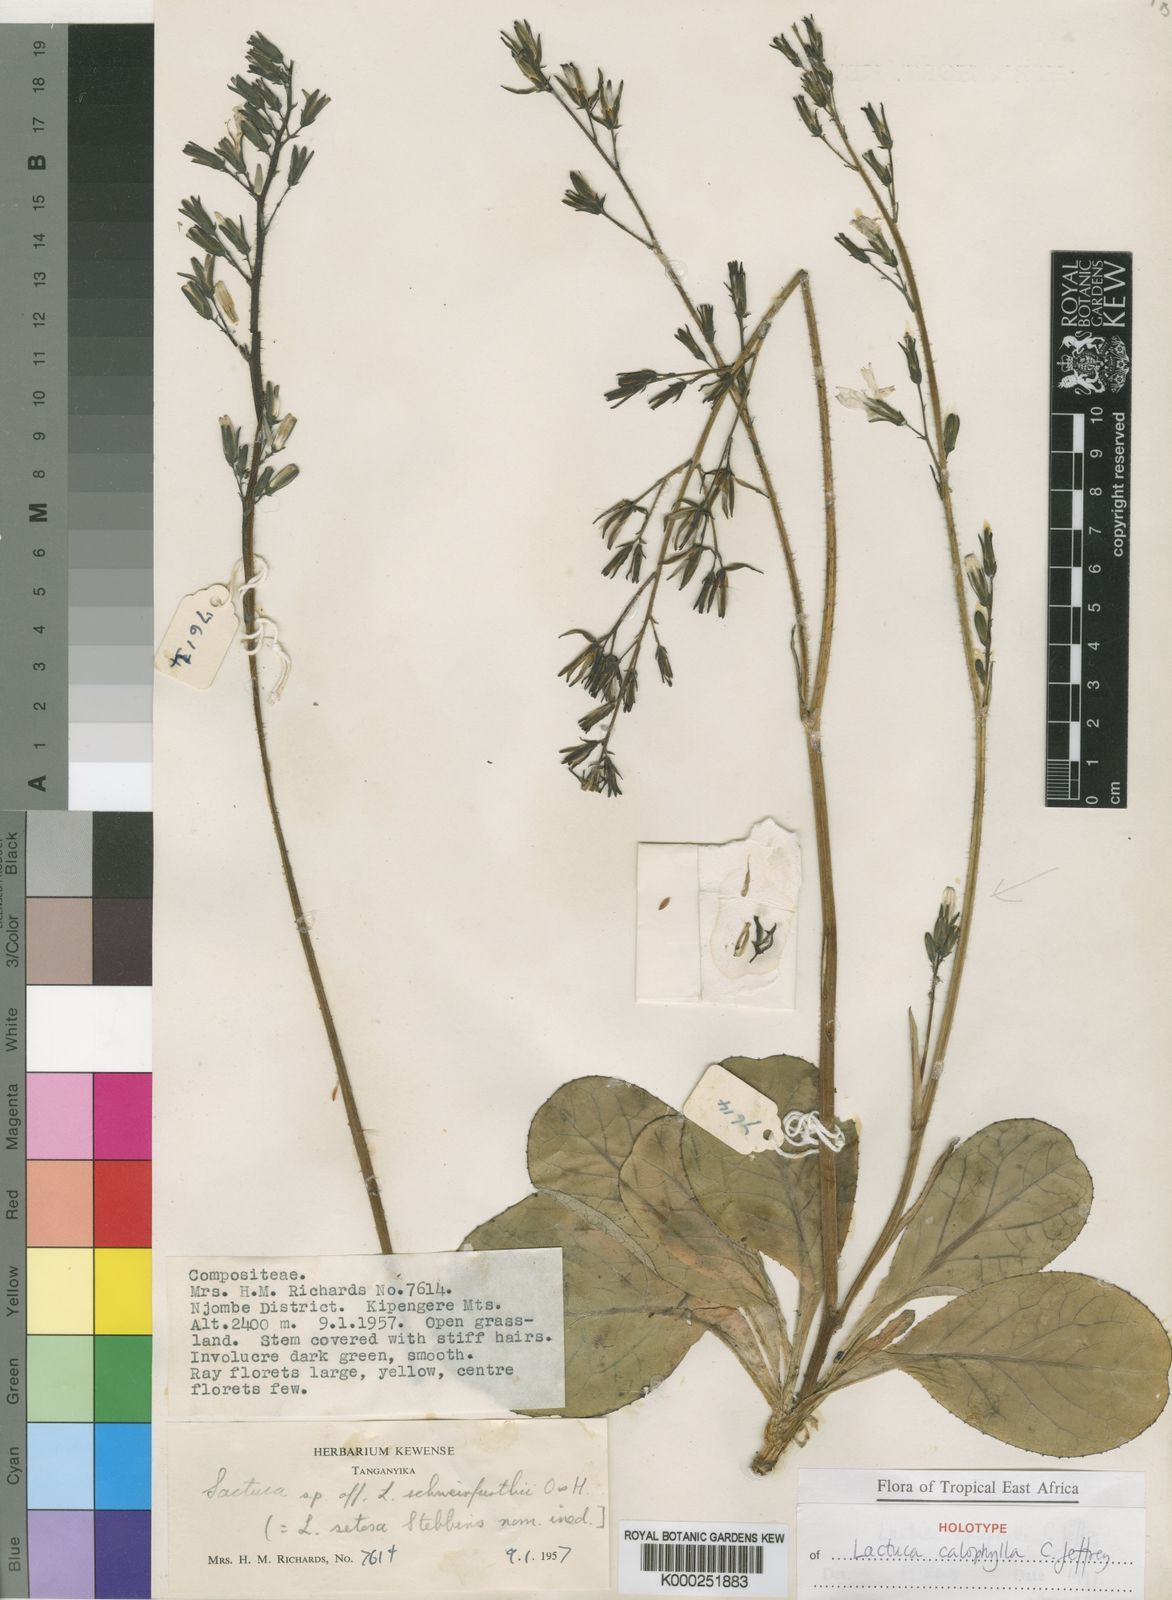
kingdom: Plantae
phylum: Tracheophyta
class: Magnoliopsida
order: Asterales
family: Asteraceae
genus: Lactuca
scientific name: Lactuca calophylla
